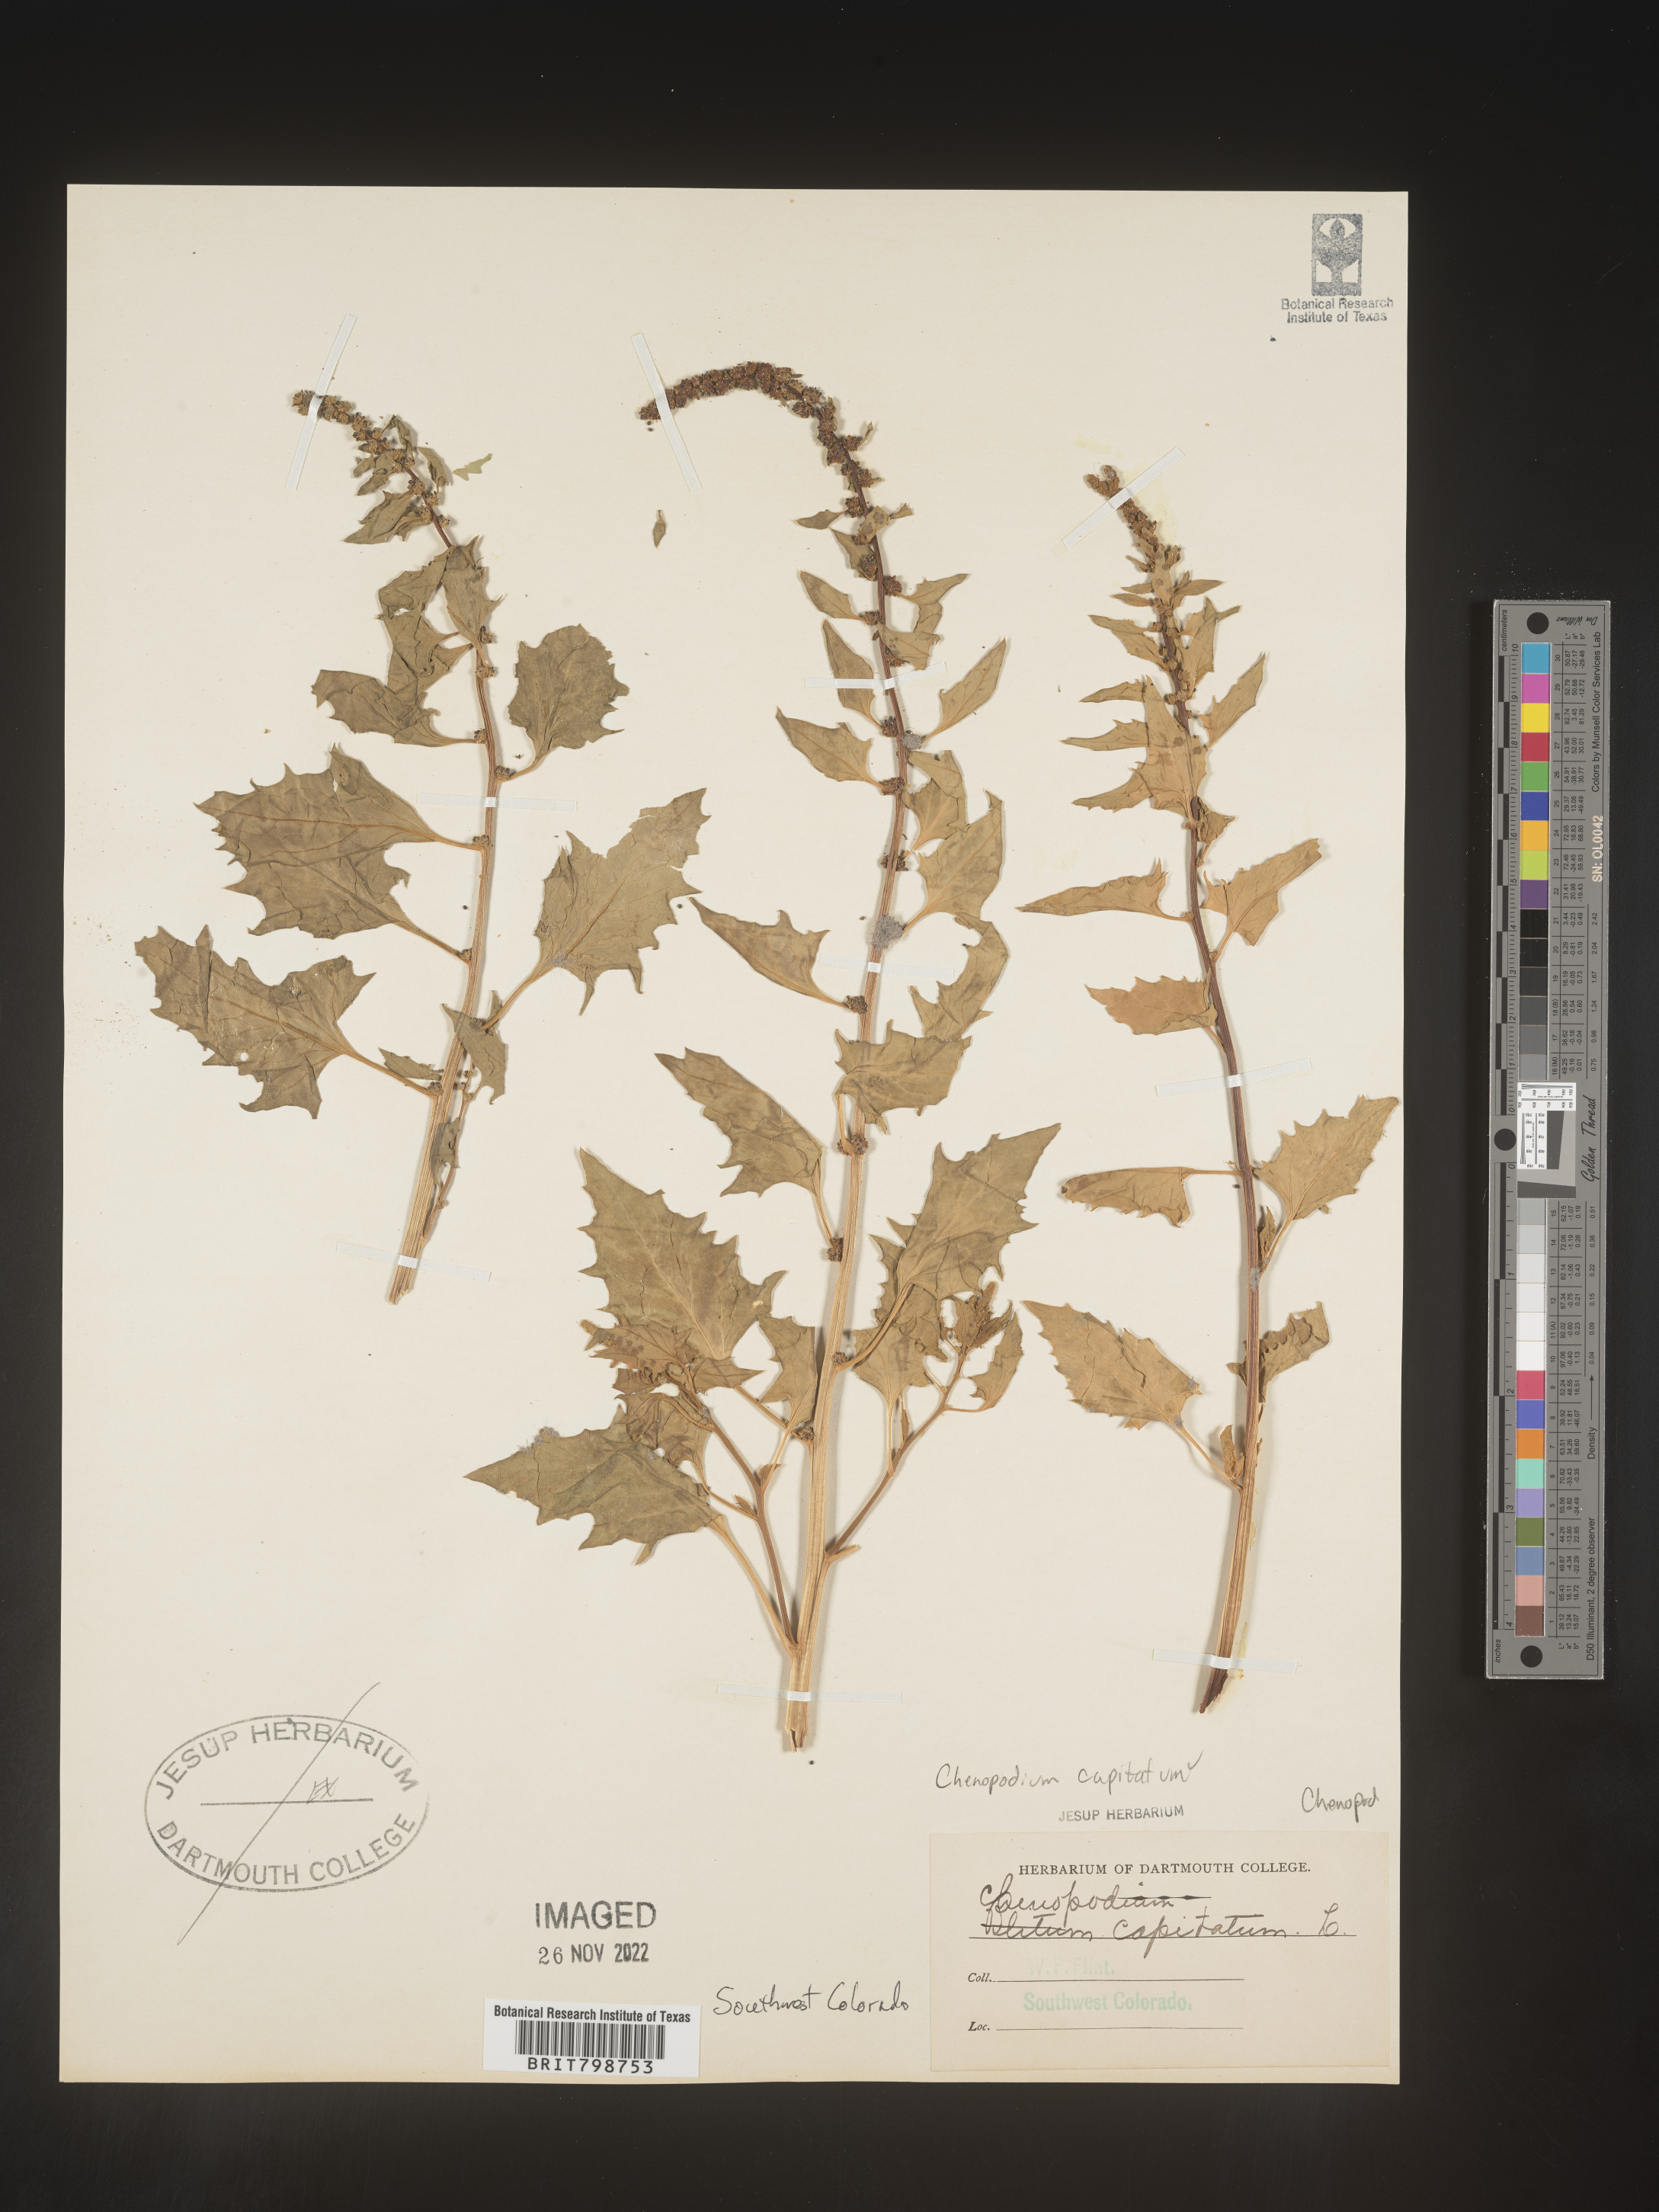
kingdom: Plantae
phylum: Tracheophyta
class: Magnoliopsida
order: Caryophyllales
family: Amaranthaceae
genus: Blitum
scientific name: Blitum capitatum
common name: Strawberry-blight
